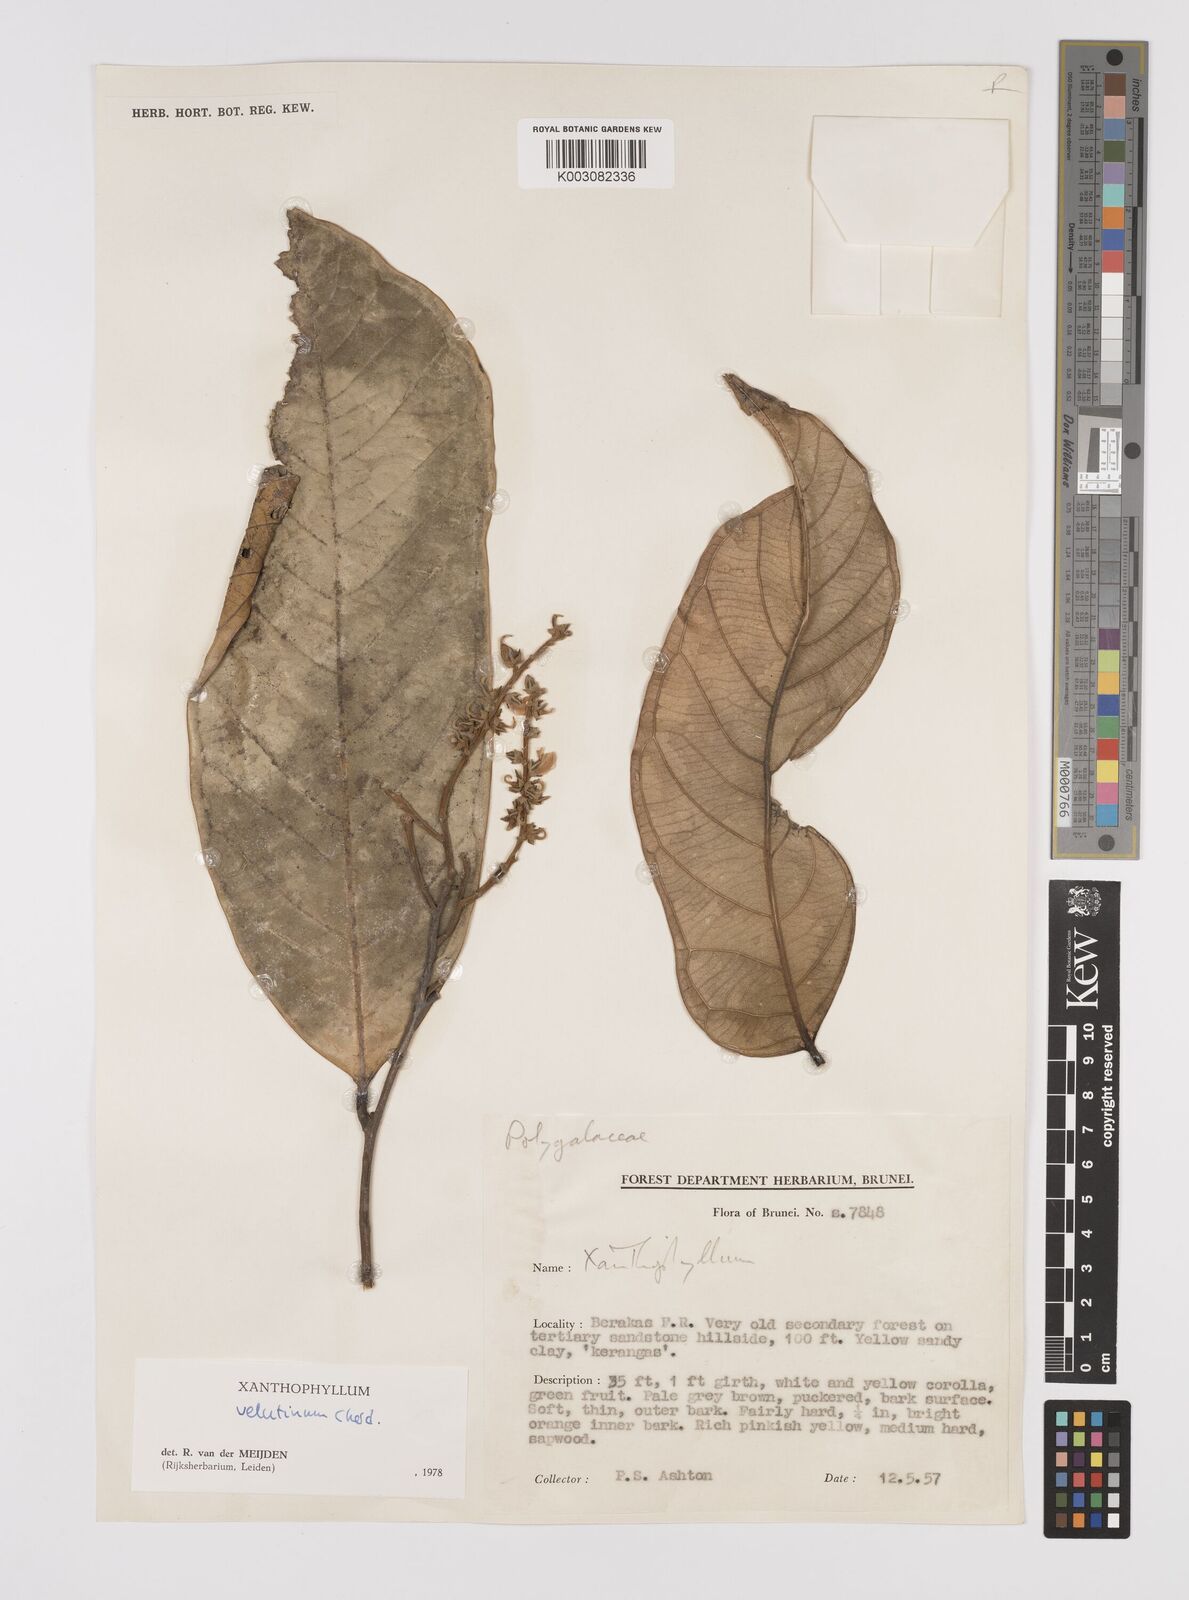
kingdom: Plantae
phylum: Tracheophyta
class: Magnoliopsida
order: Fabales
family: Polygalaceae
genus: Xanthophyllum
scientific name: Xanthophyllum velutinum
